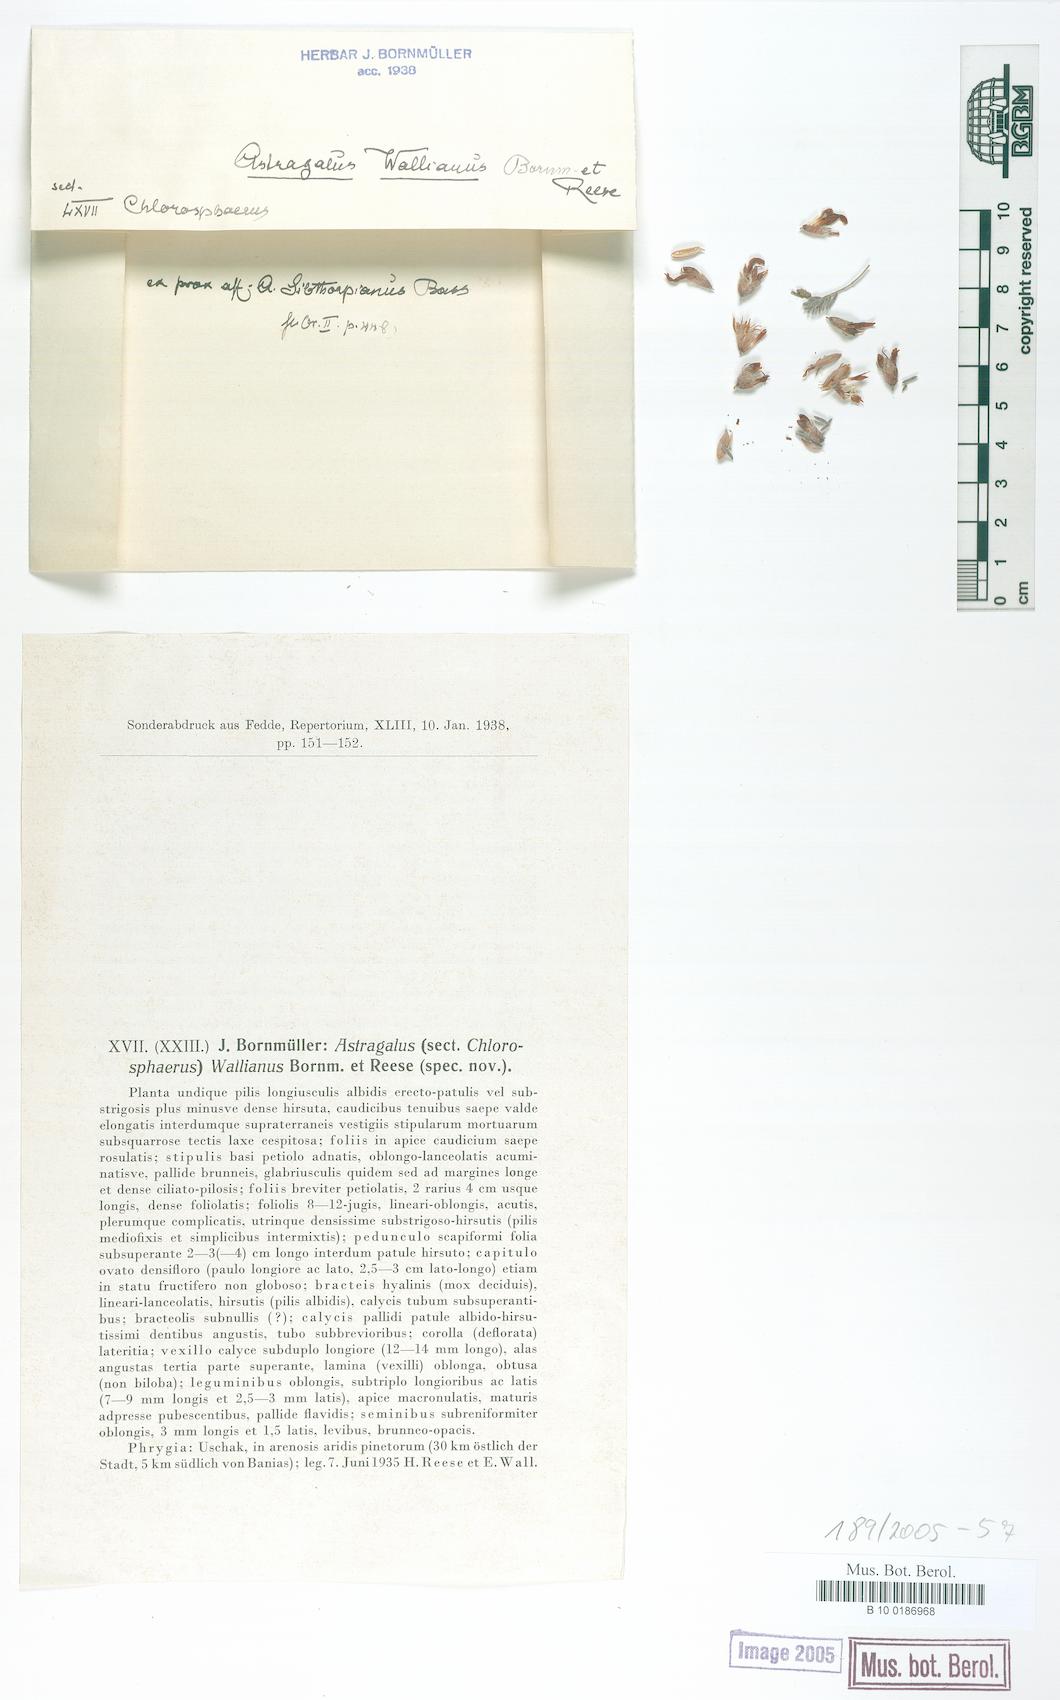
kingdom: Plantae
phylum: Tracheophyta
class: Magnoliopsida
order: Fabales
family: Fabaceae
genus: Astragalus
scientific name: Astragalus sibthorpianus
